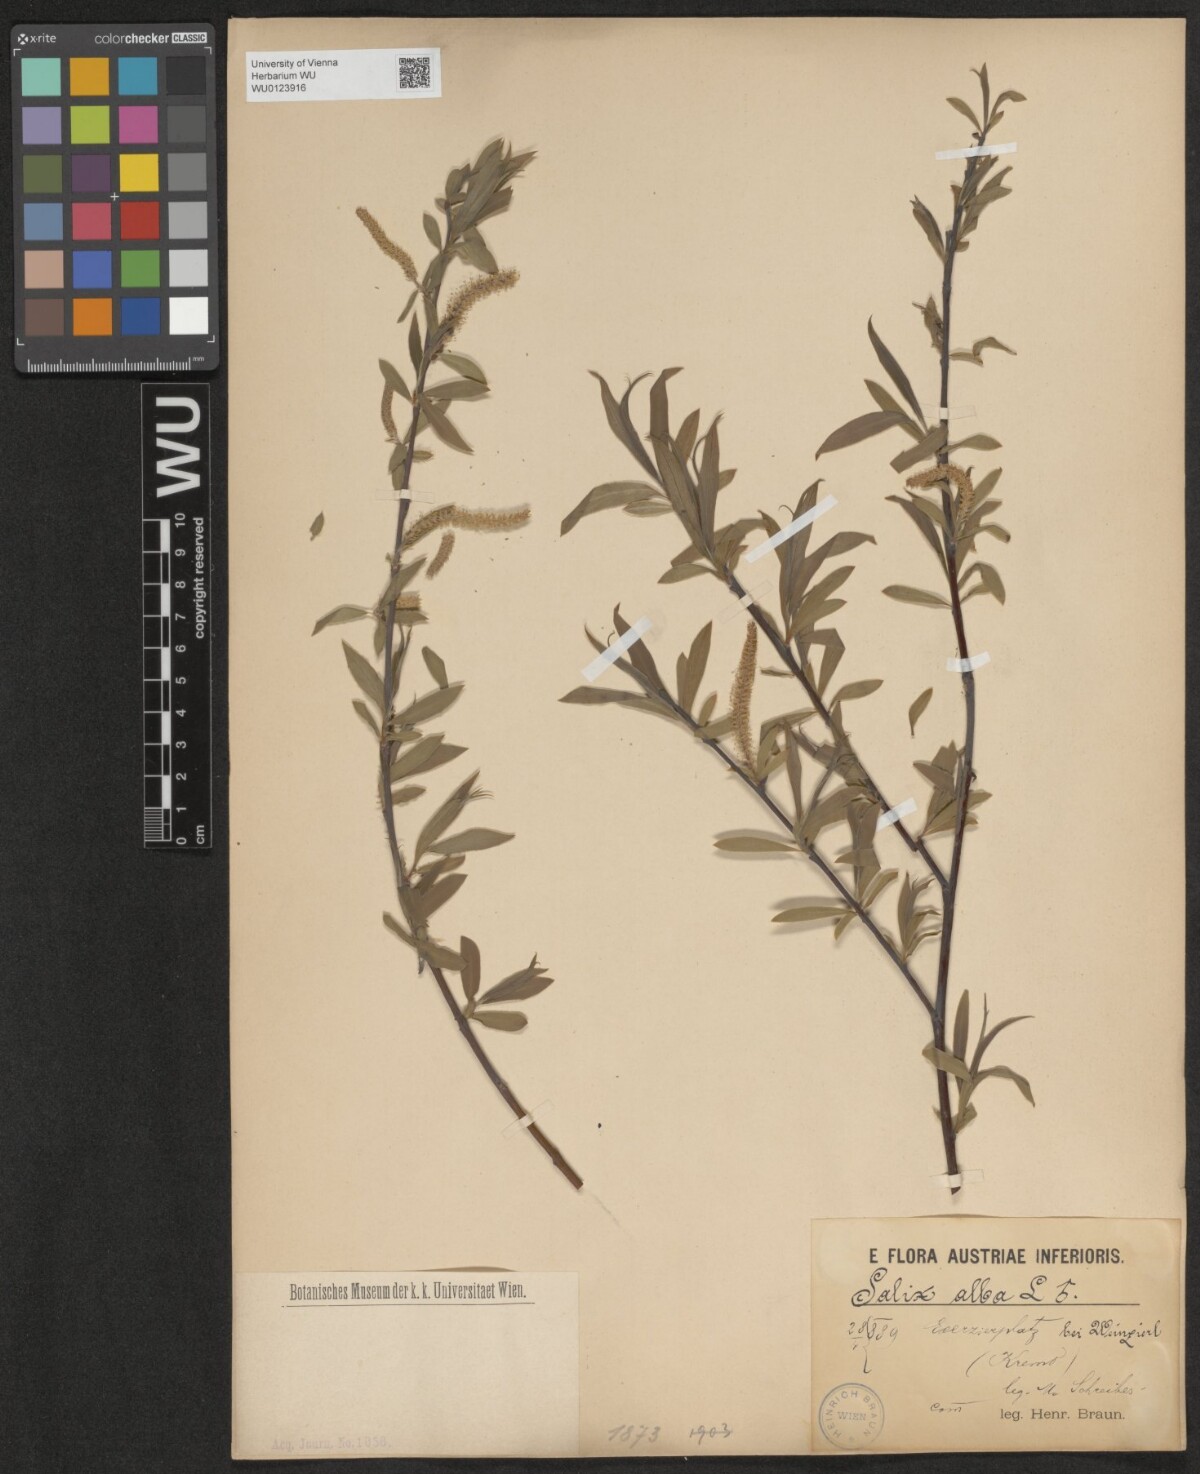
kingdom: Plantae
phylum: Tracheophyta
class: Magnoliopsida
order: Malpighiales
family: Salicaceae
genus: Salix
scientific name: Salix alba
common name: White willow
